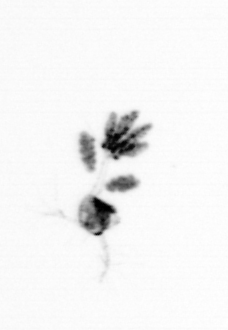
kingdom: Animalia
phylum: Arthropoda
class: Copepoda
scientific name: Copepoda
